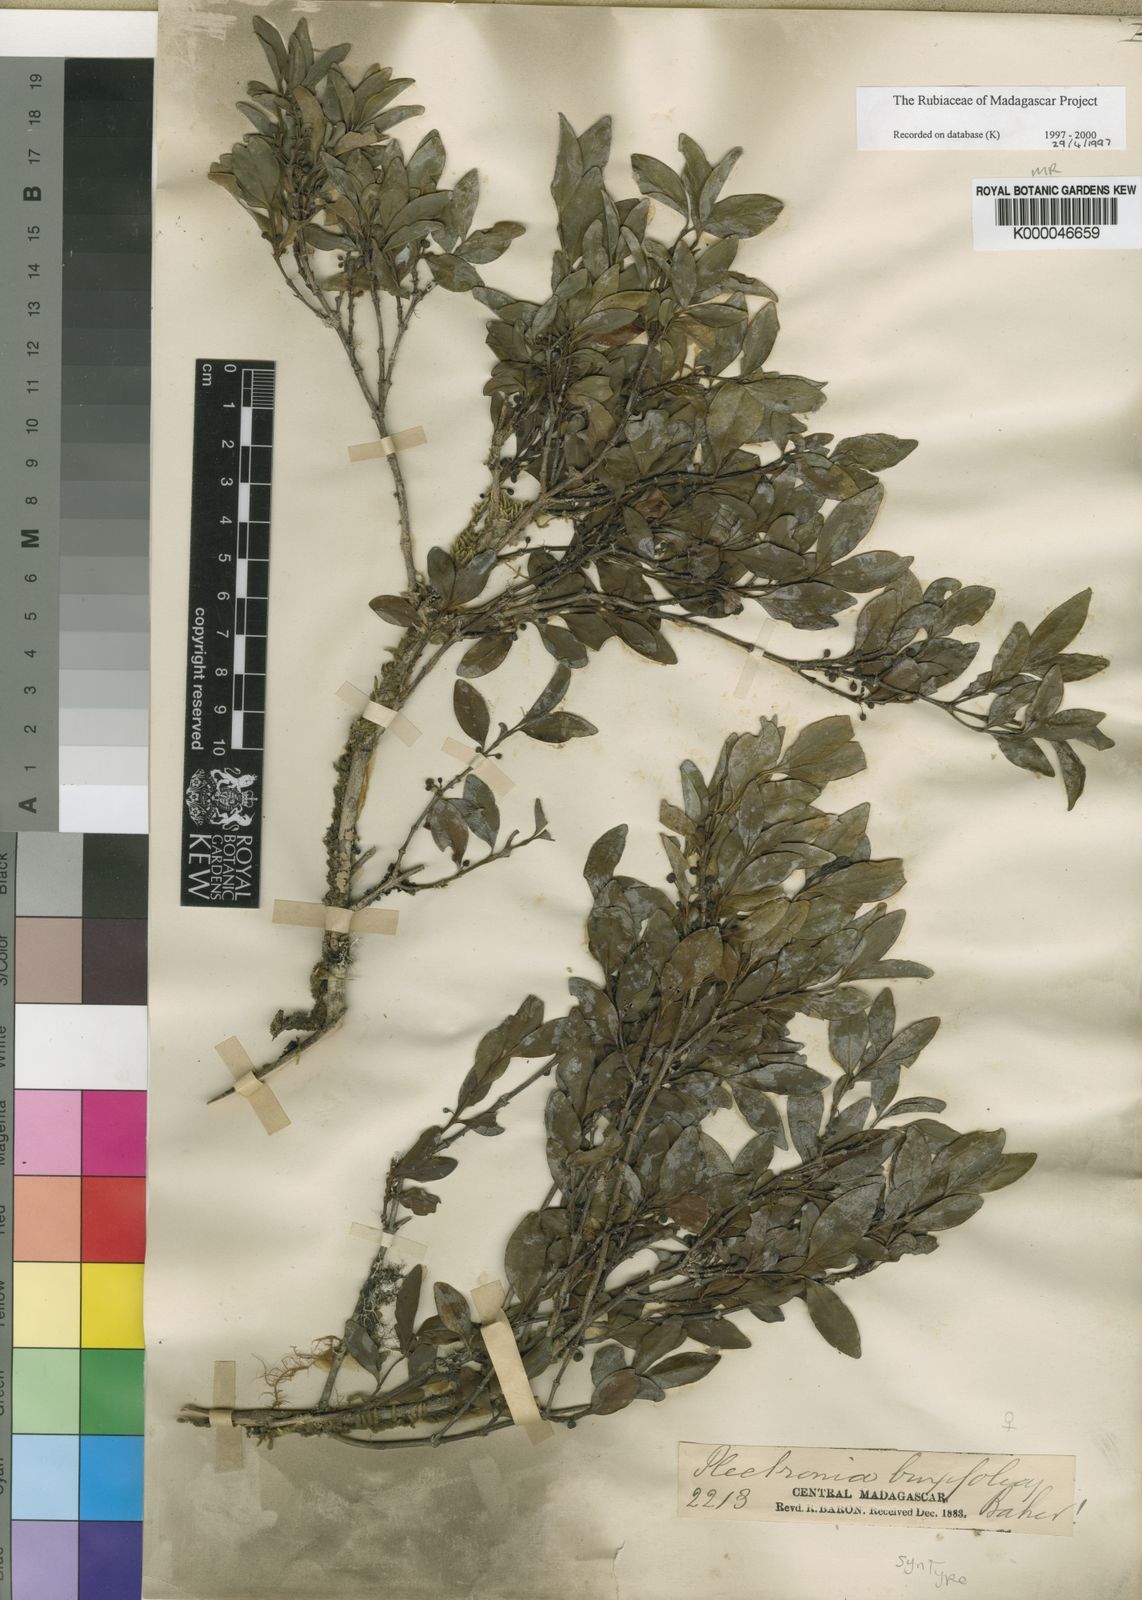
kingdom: Plantae
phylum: Tracheophyta
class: Magnoliopsida
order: Gentianales
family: Rubiaceae
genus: Peponidium
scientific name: Peponidium buxifolium
